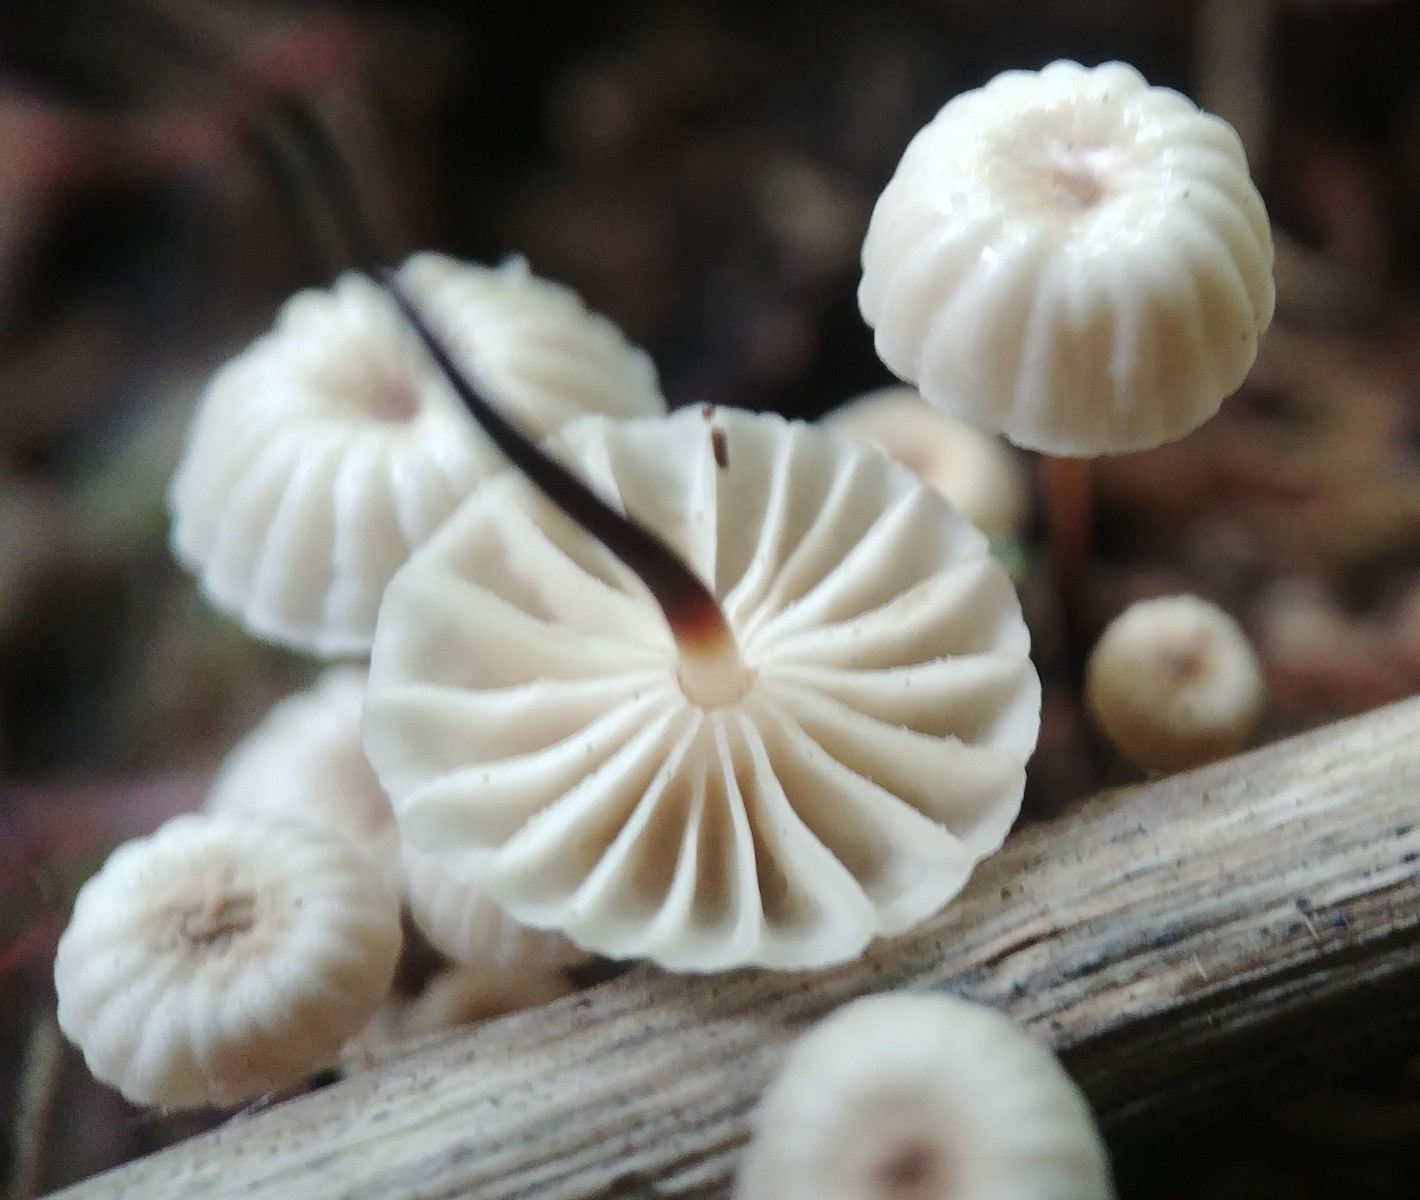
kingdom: Fungi
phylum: Basidiomycota
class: Agaricomycetes
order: Agaricales
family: Marasmiaceae
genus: Marasmius
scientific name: Marasmius rotula
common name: hjul-bruskhat
